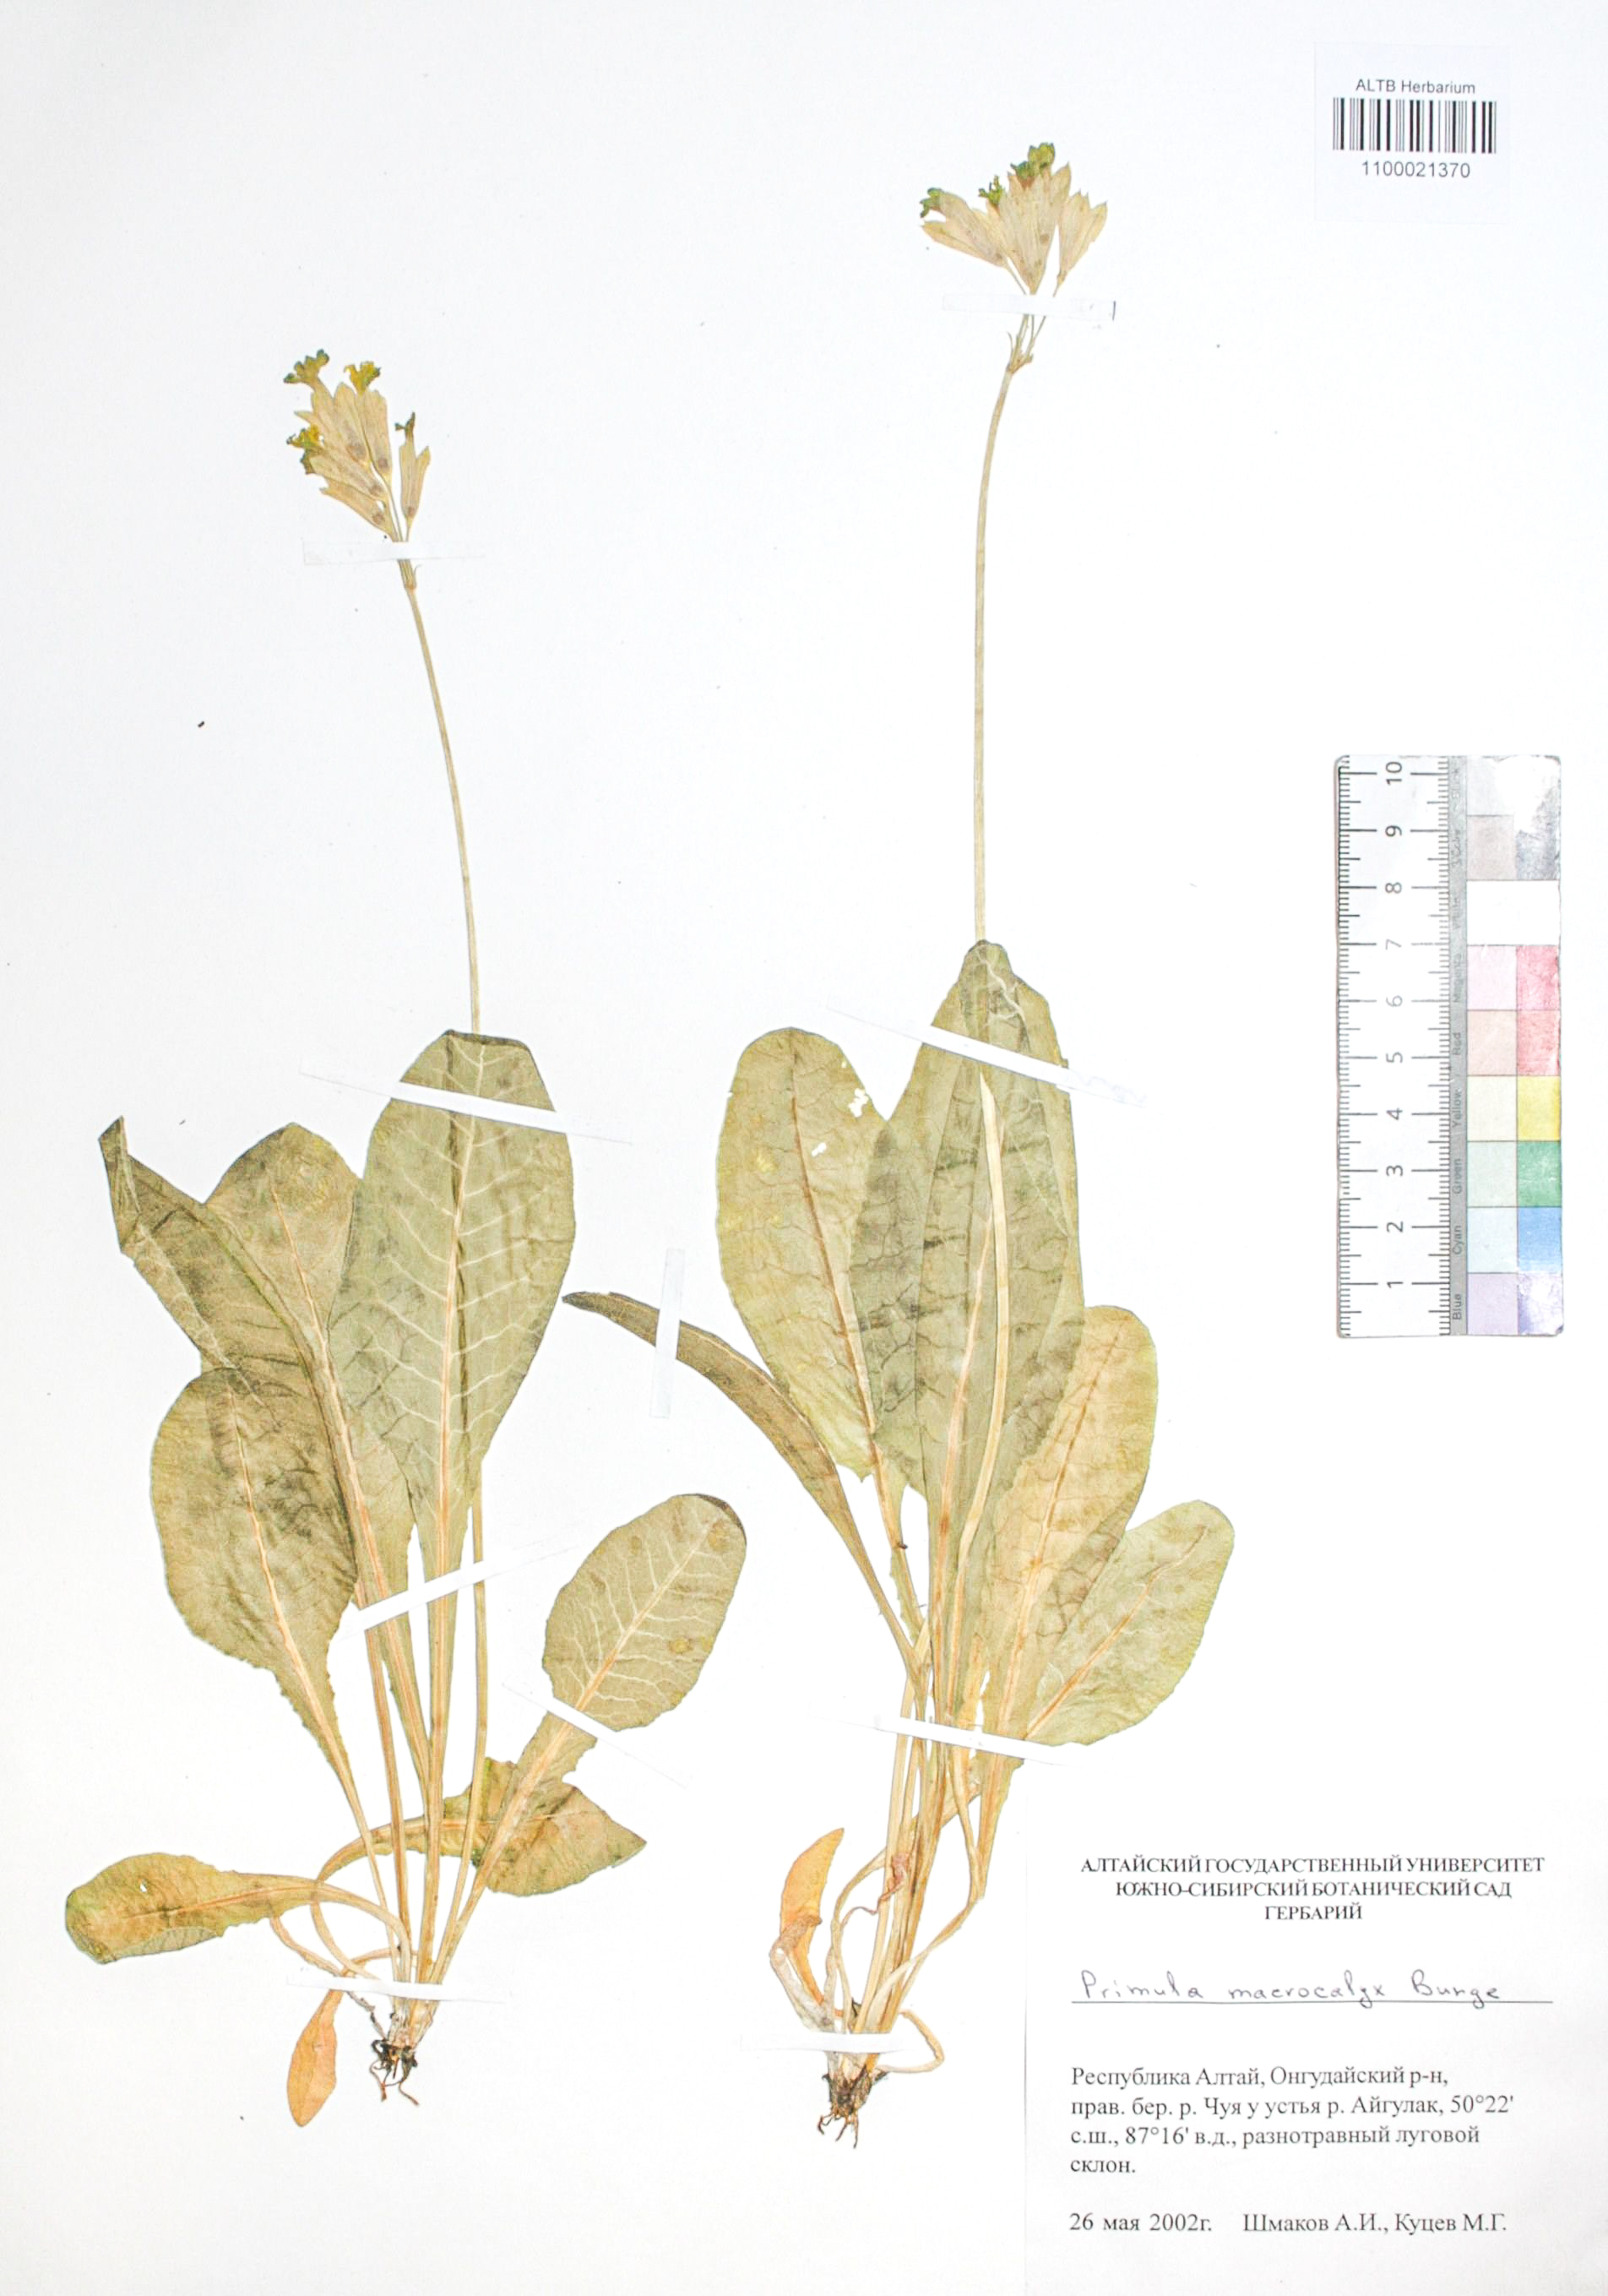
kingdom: Plantae
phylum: Tracheophyta
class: Magnoliopsida
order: Ericales
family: Primulaceae
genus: Primula
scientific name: Primula veris
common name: Cowslip
